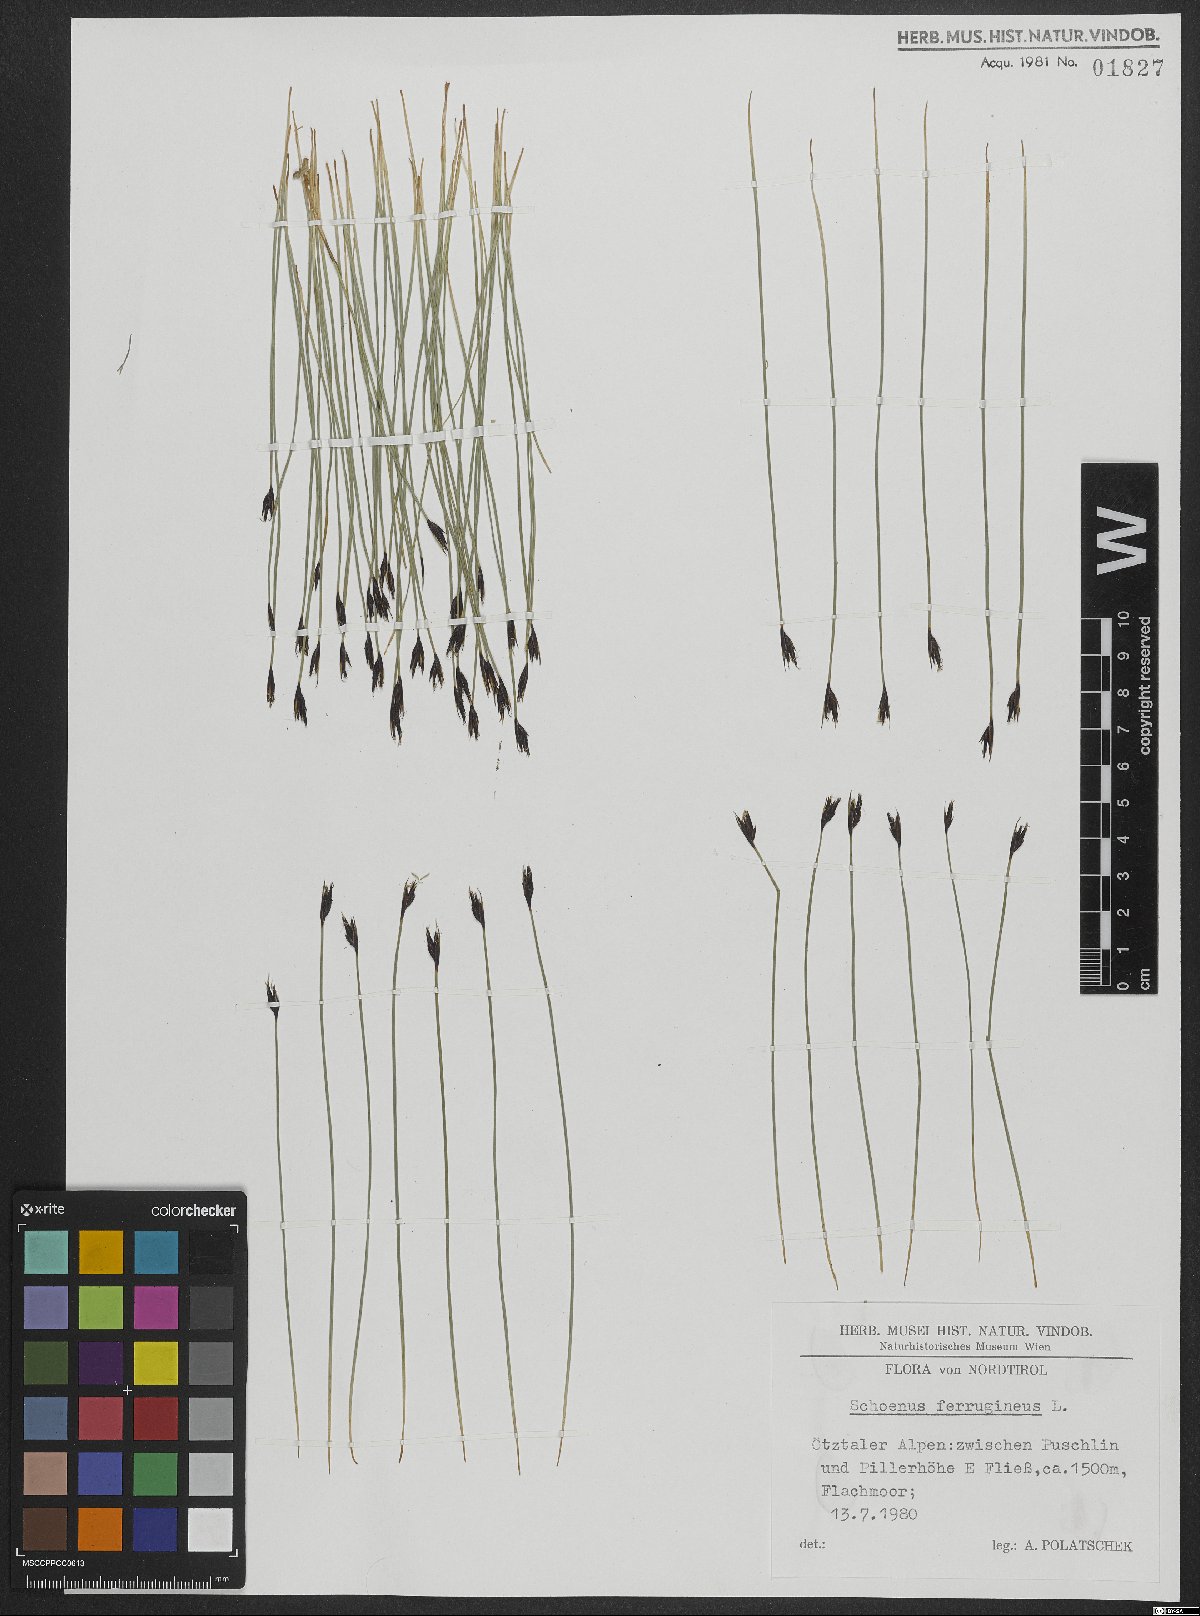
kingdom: Plantae
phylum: Tracheophyta
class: Liliopsida
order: Poales
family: Cyperaceae
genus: Schoenus
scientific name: Schoenus ferrugineus
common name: Brown bog-rush
